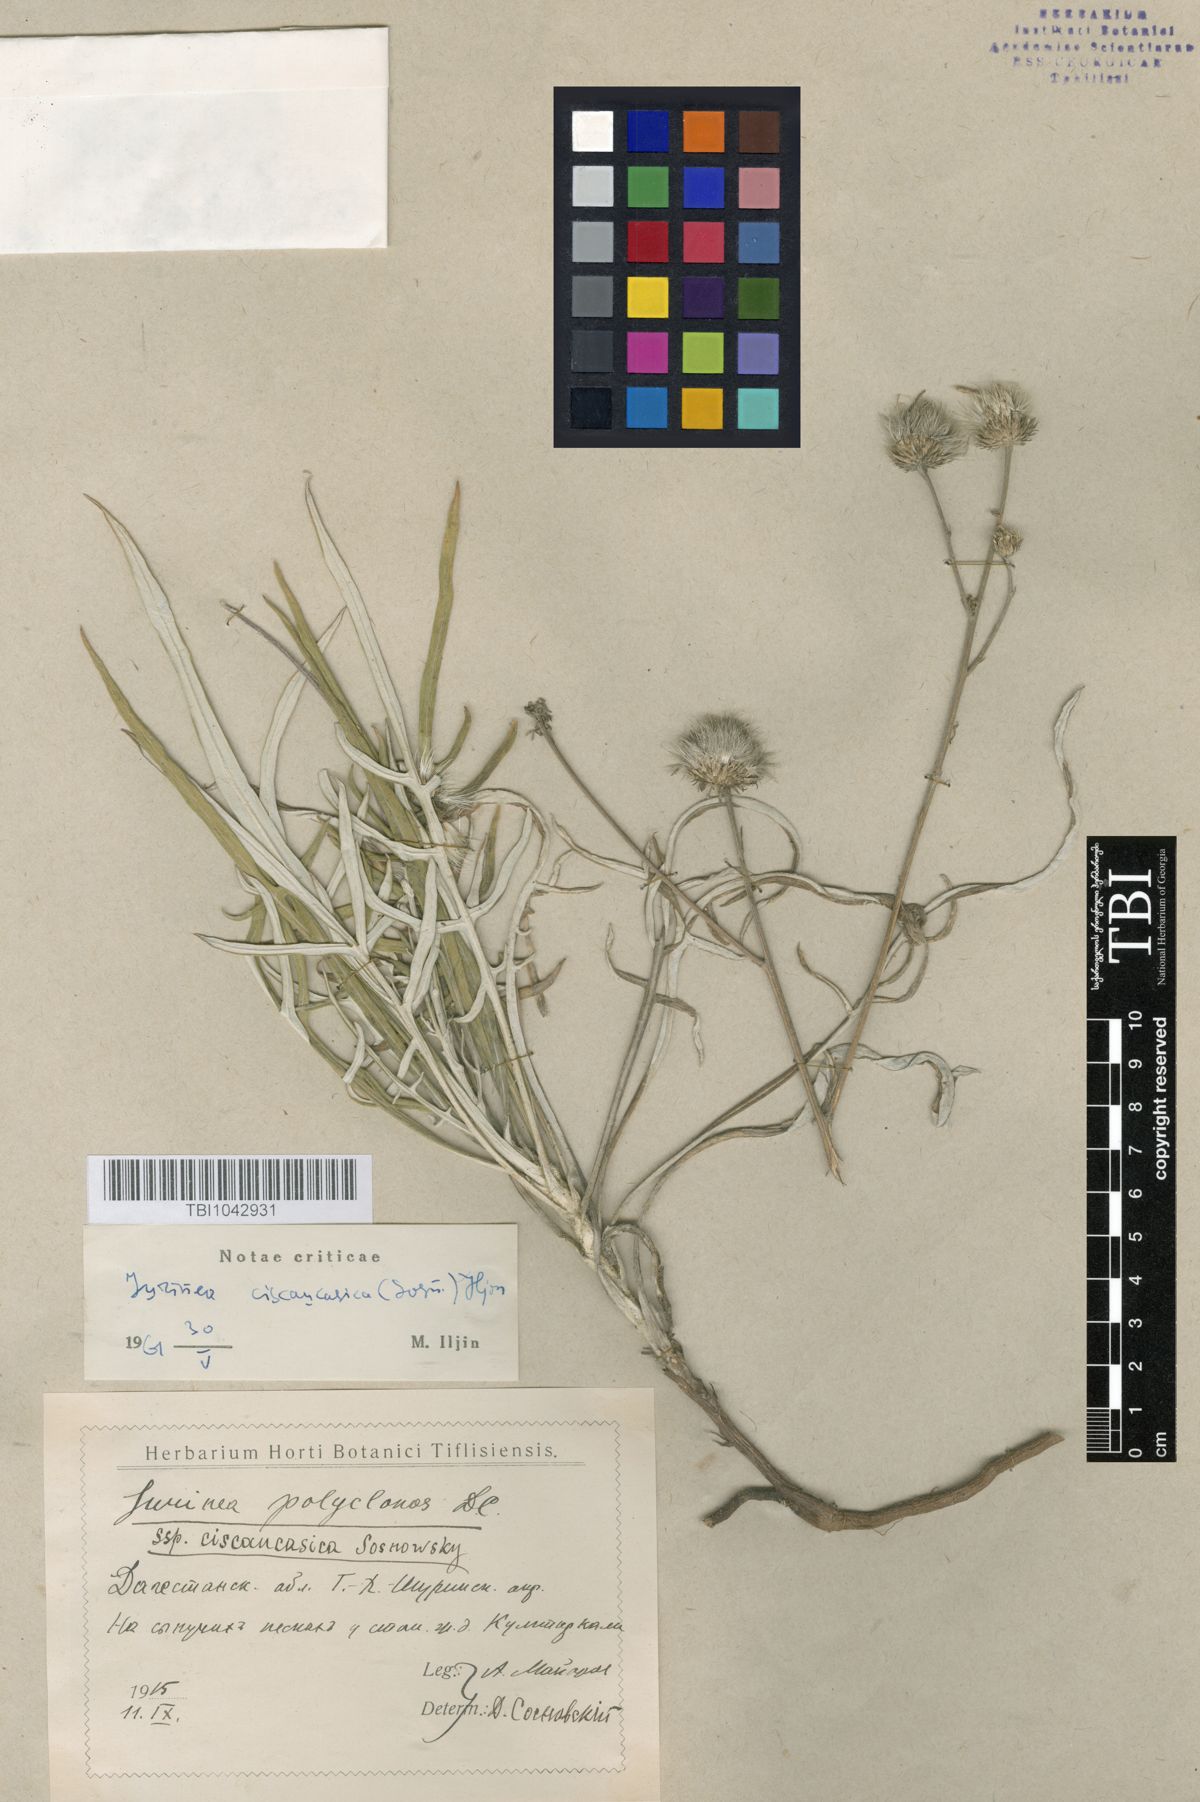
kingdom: Plantae
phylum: Tracheophyta
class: Magnoliopsida
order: Asterales
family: Asteraceae
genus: Jurinea
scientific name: Jurinea ciscaucasica
